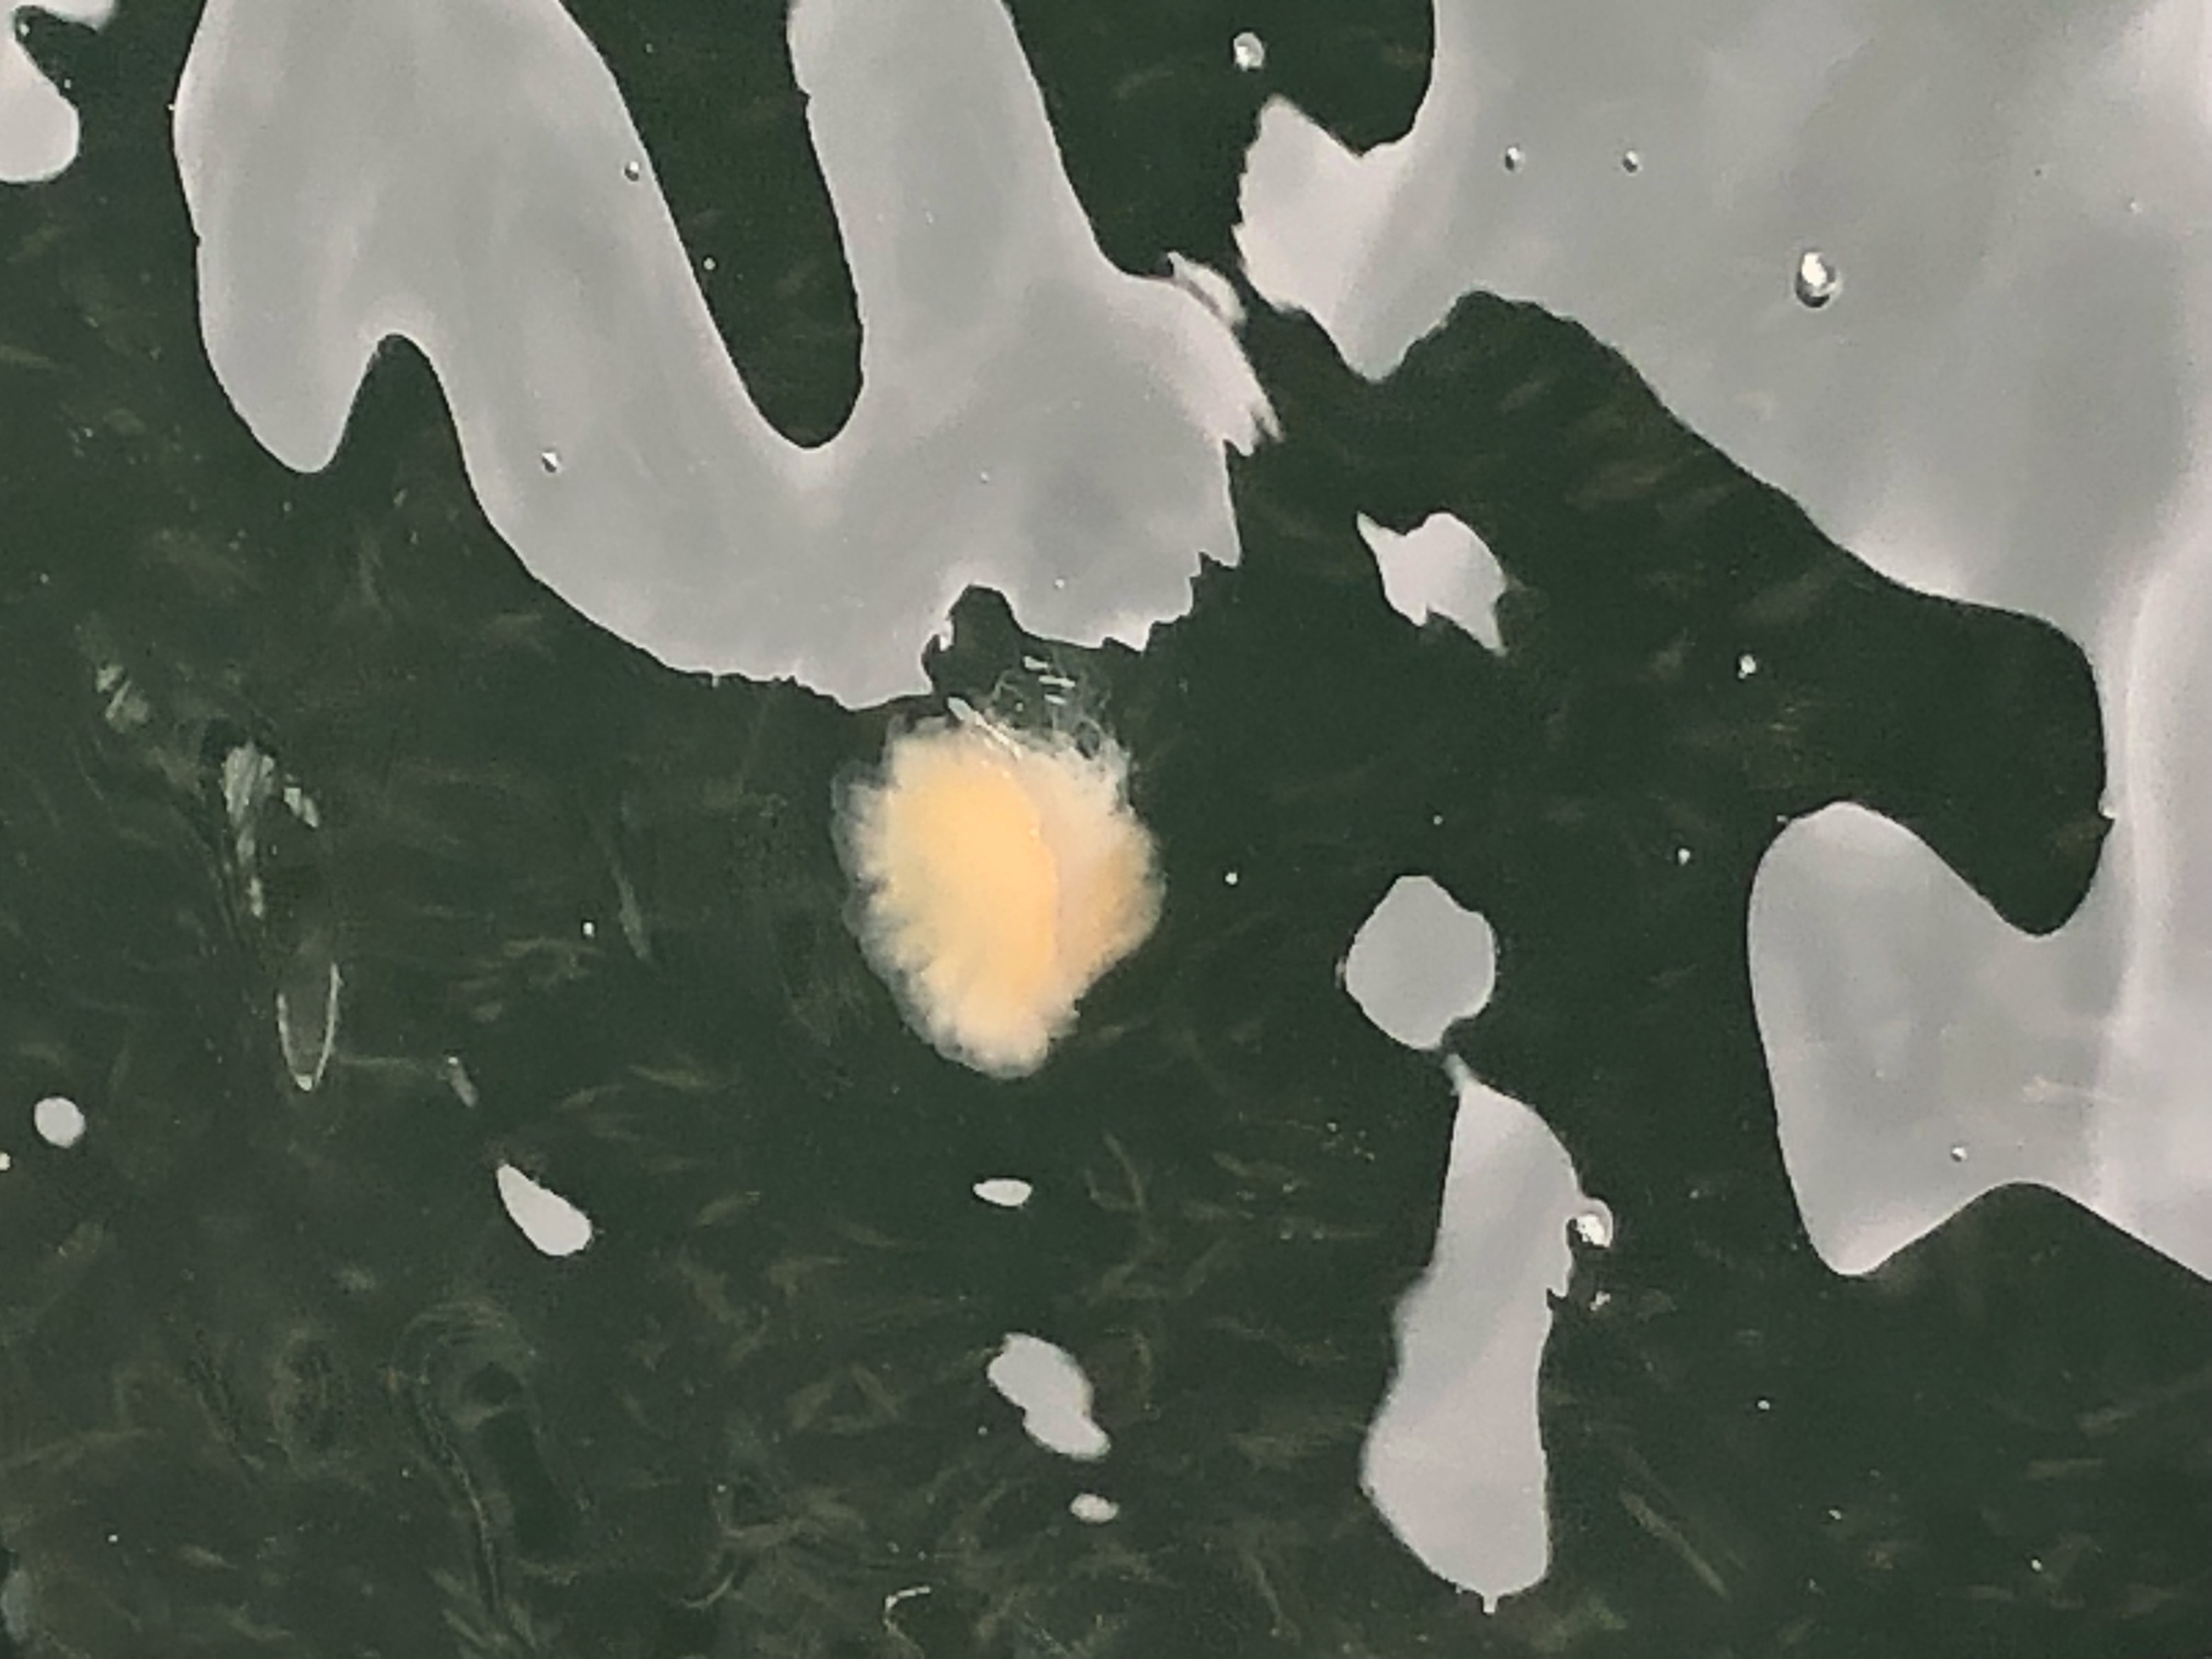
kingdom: Animalia
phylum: Cnidaria
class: Scyphozoa
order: Semaeostomeae
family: Cyaneidae
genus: Cyanea
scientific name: Cyanea nozakii
